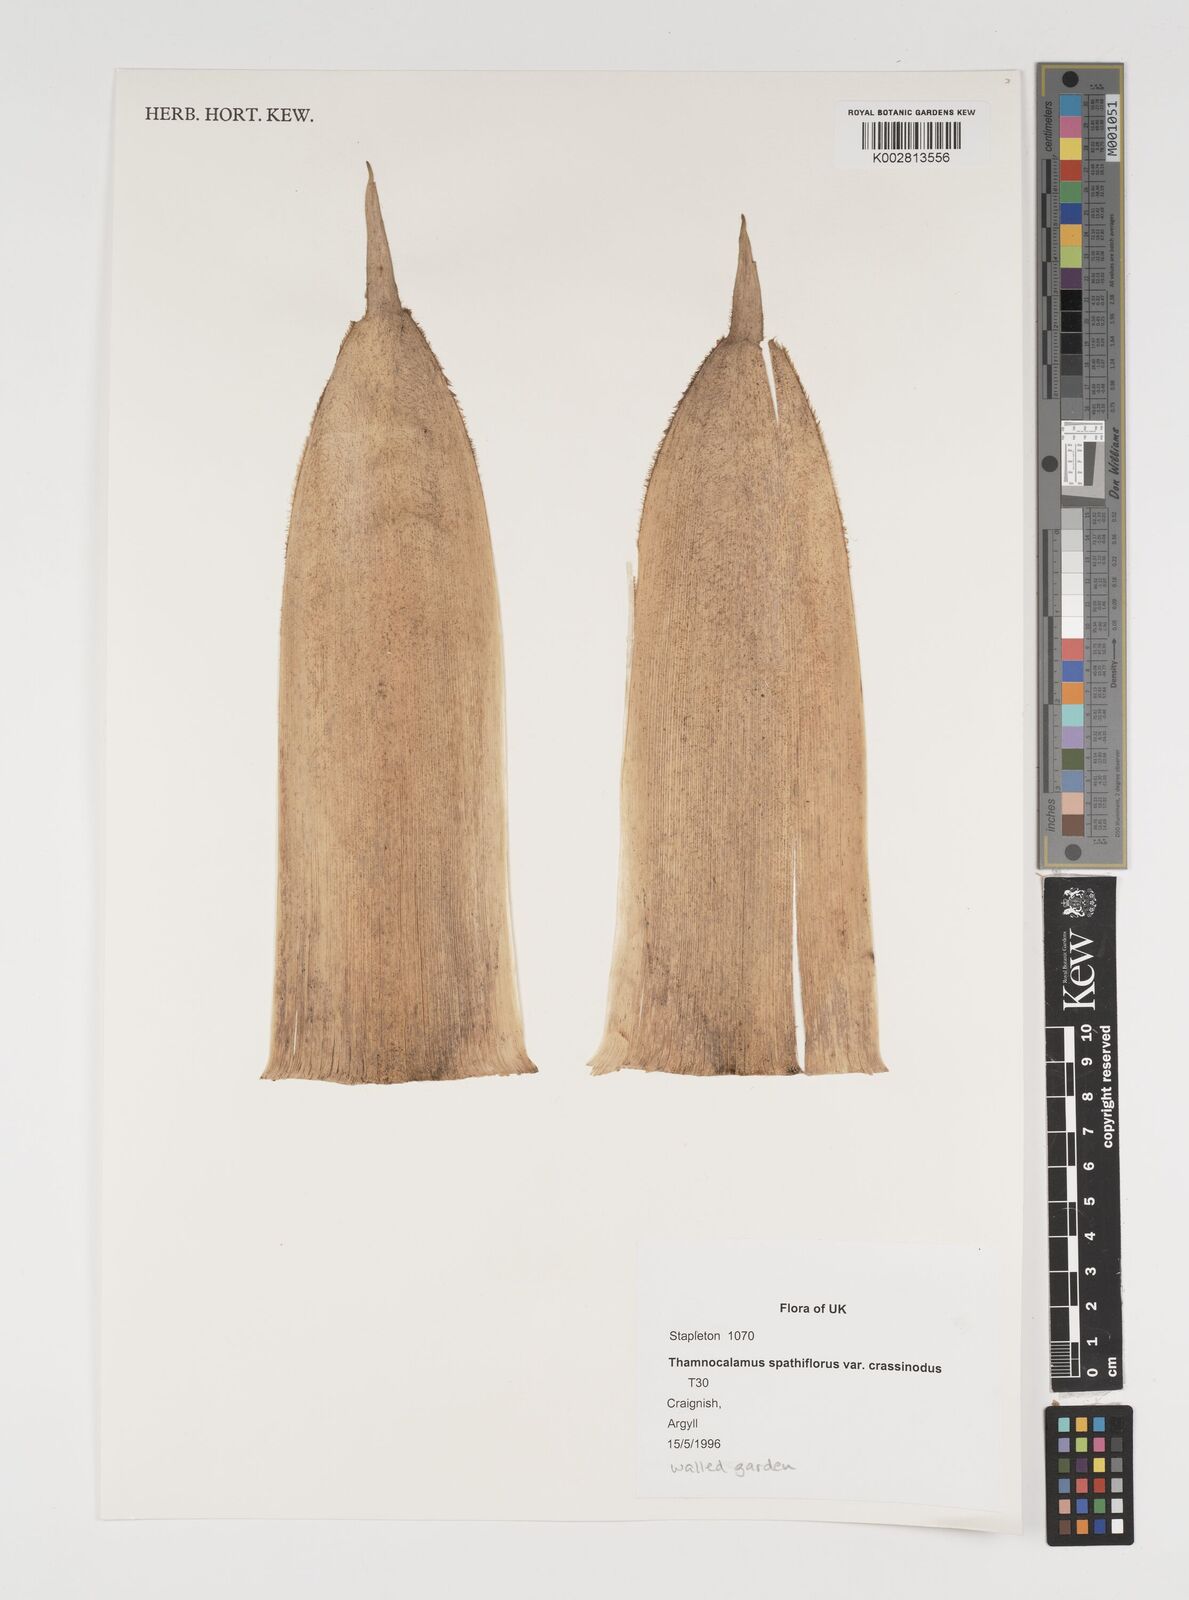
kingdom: Plantae
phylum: Tracheophyta
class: Liliopsida
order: Poales
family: Poaceae
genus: Fargesia
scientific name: Fargesia murielae
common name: Umbrella bamboo
